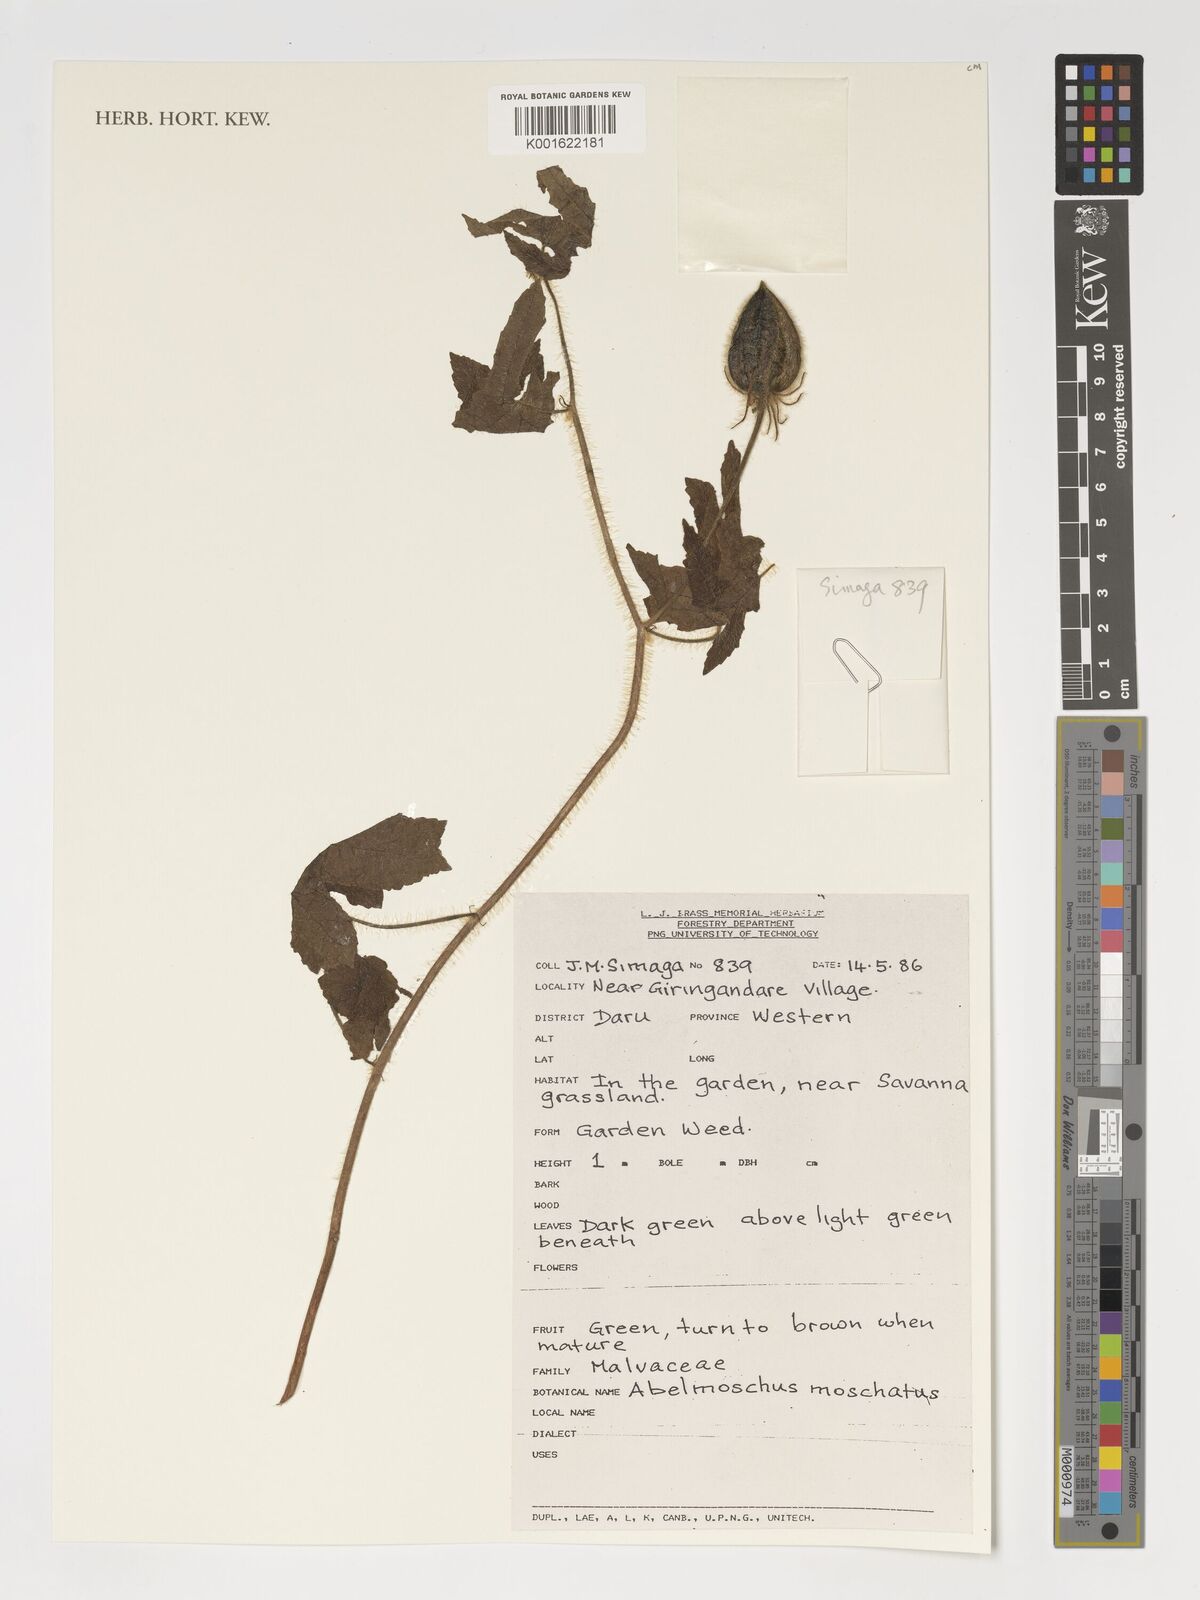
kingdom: Plantae
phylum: Tracheophyta
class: Magnoliopsida
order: Malvales
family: Malvaceae
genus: Abelmoschus
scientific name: Abelmoschus moschatus
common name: Musk okra
